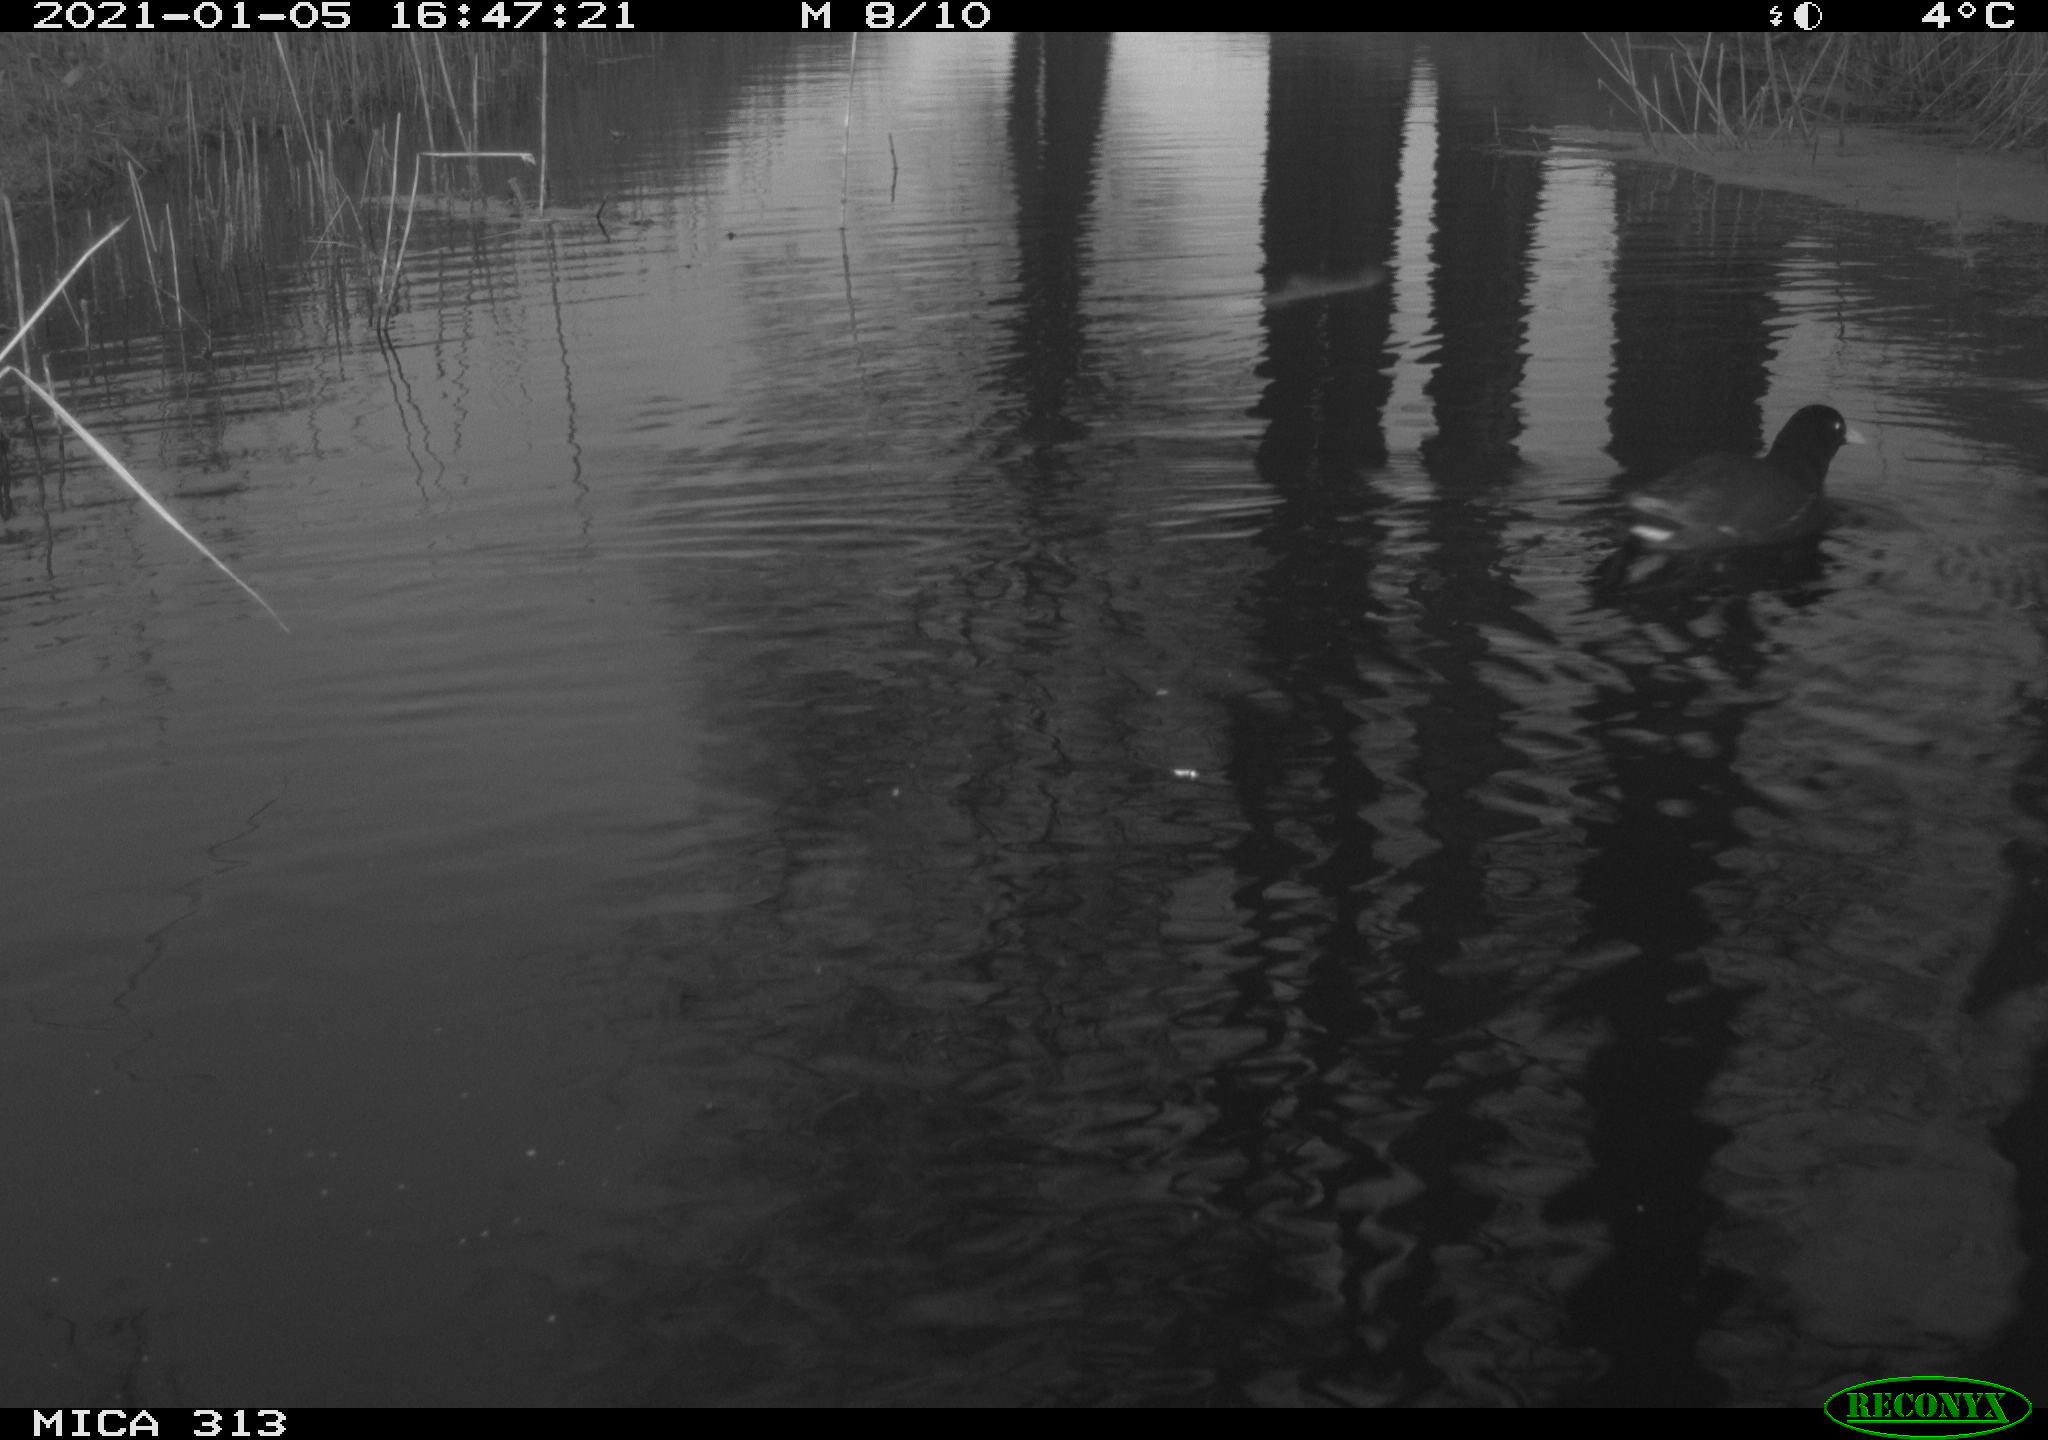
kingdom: Animalia
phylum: Chordata
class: Aves
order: Gruiformes
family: Rallidae
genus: Gallinula
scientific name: Gallinula chloropus
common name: Common moorhen
